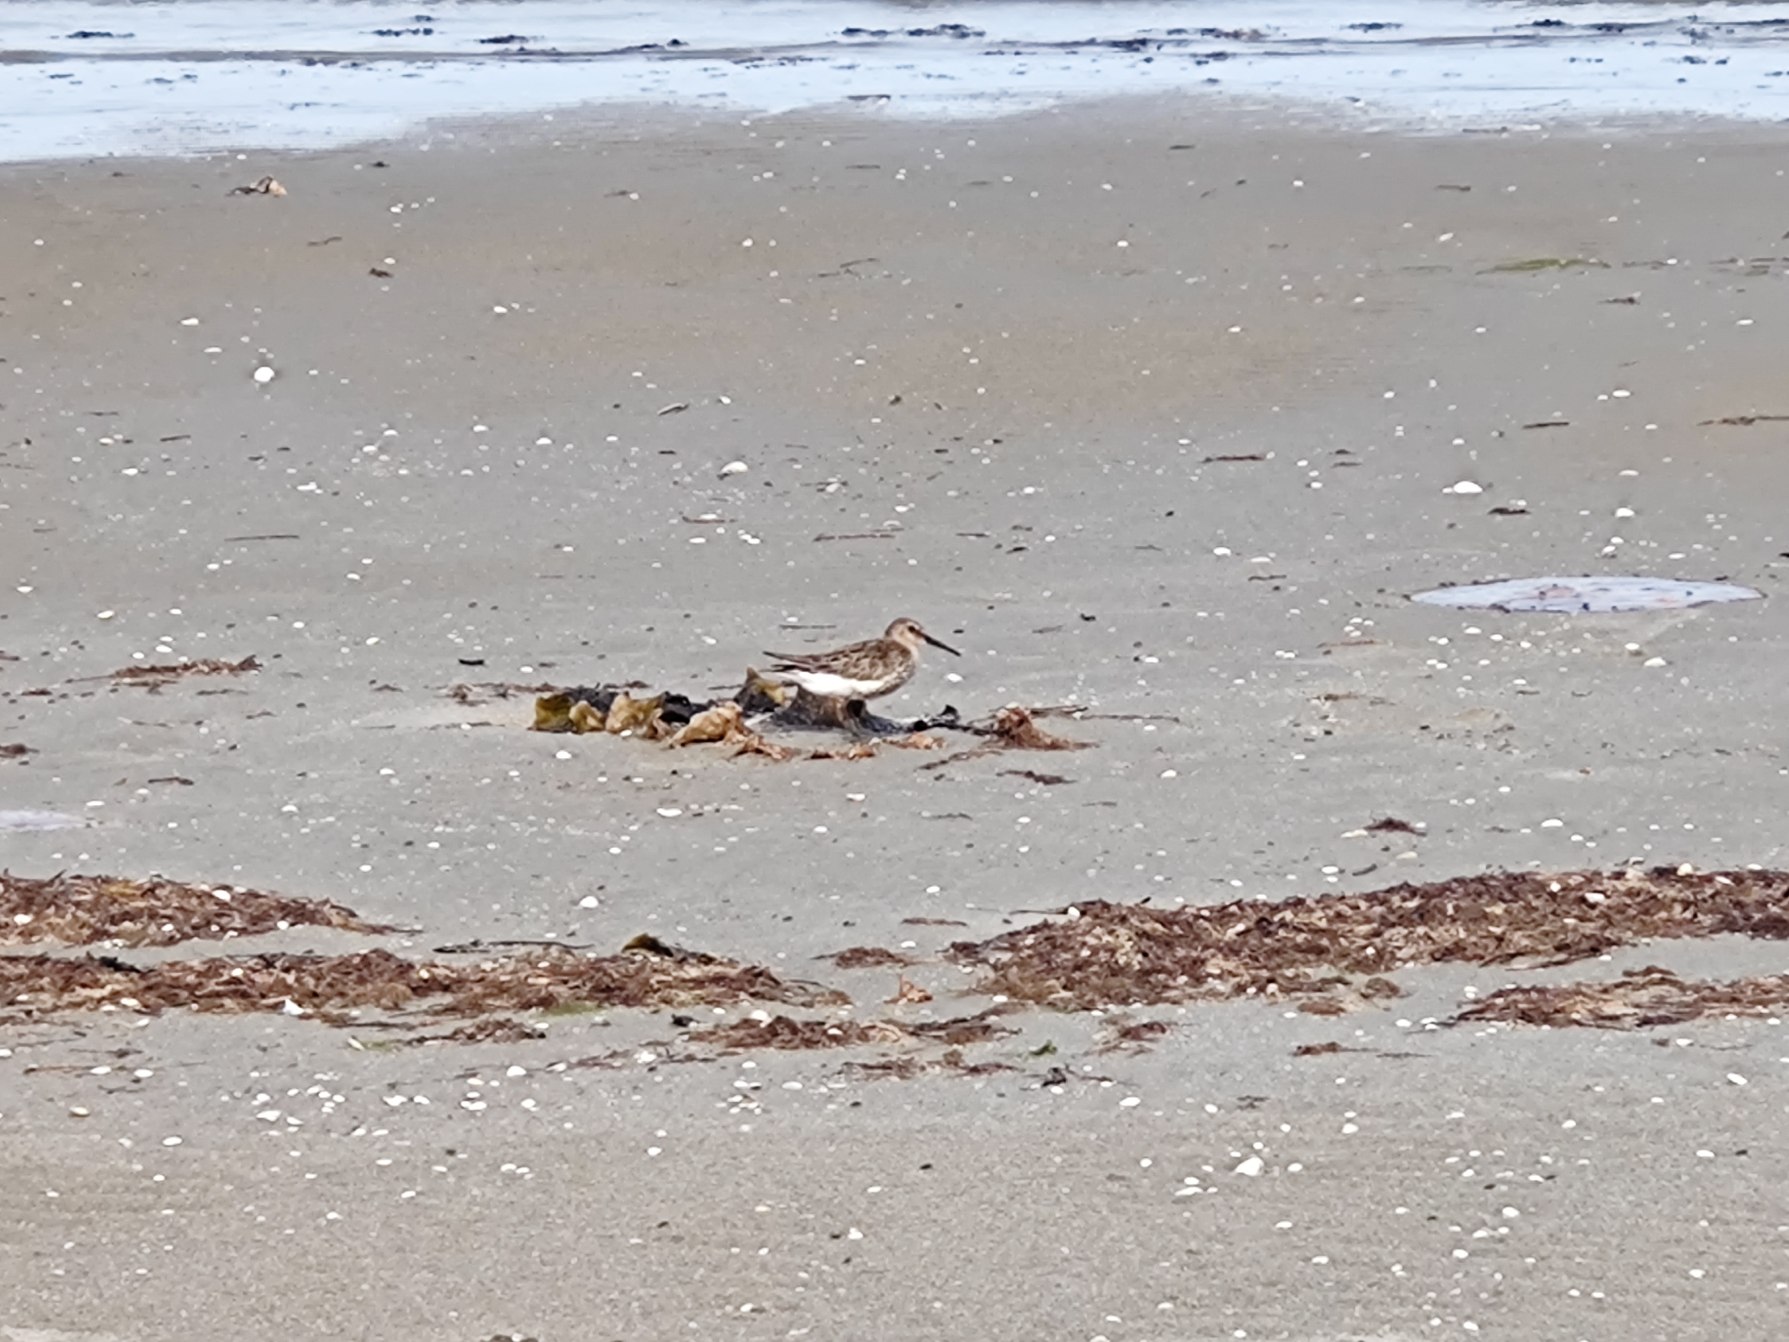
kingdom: Animalia
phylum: Chordata
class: Aves
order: Charadriiformes
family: Scolopacidae
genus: Calidris
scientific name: Calidris alpina
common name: Almindelig ryle
